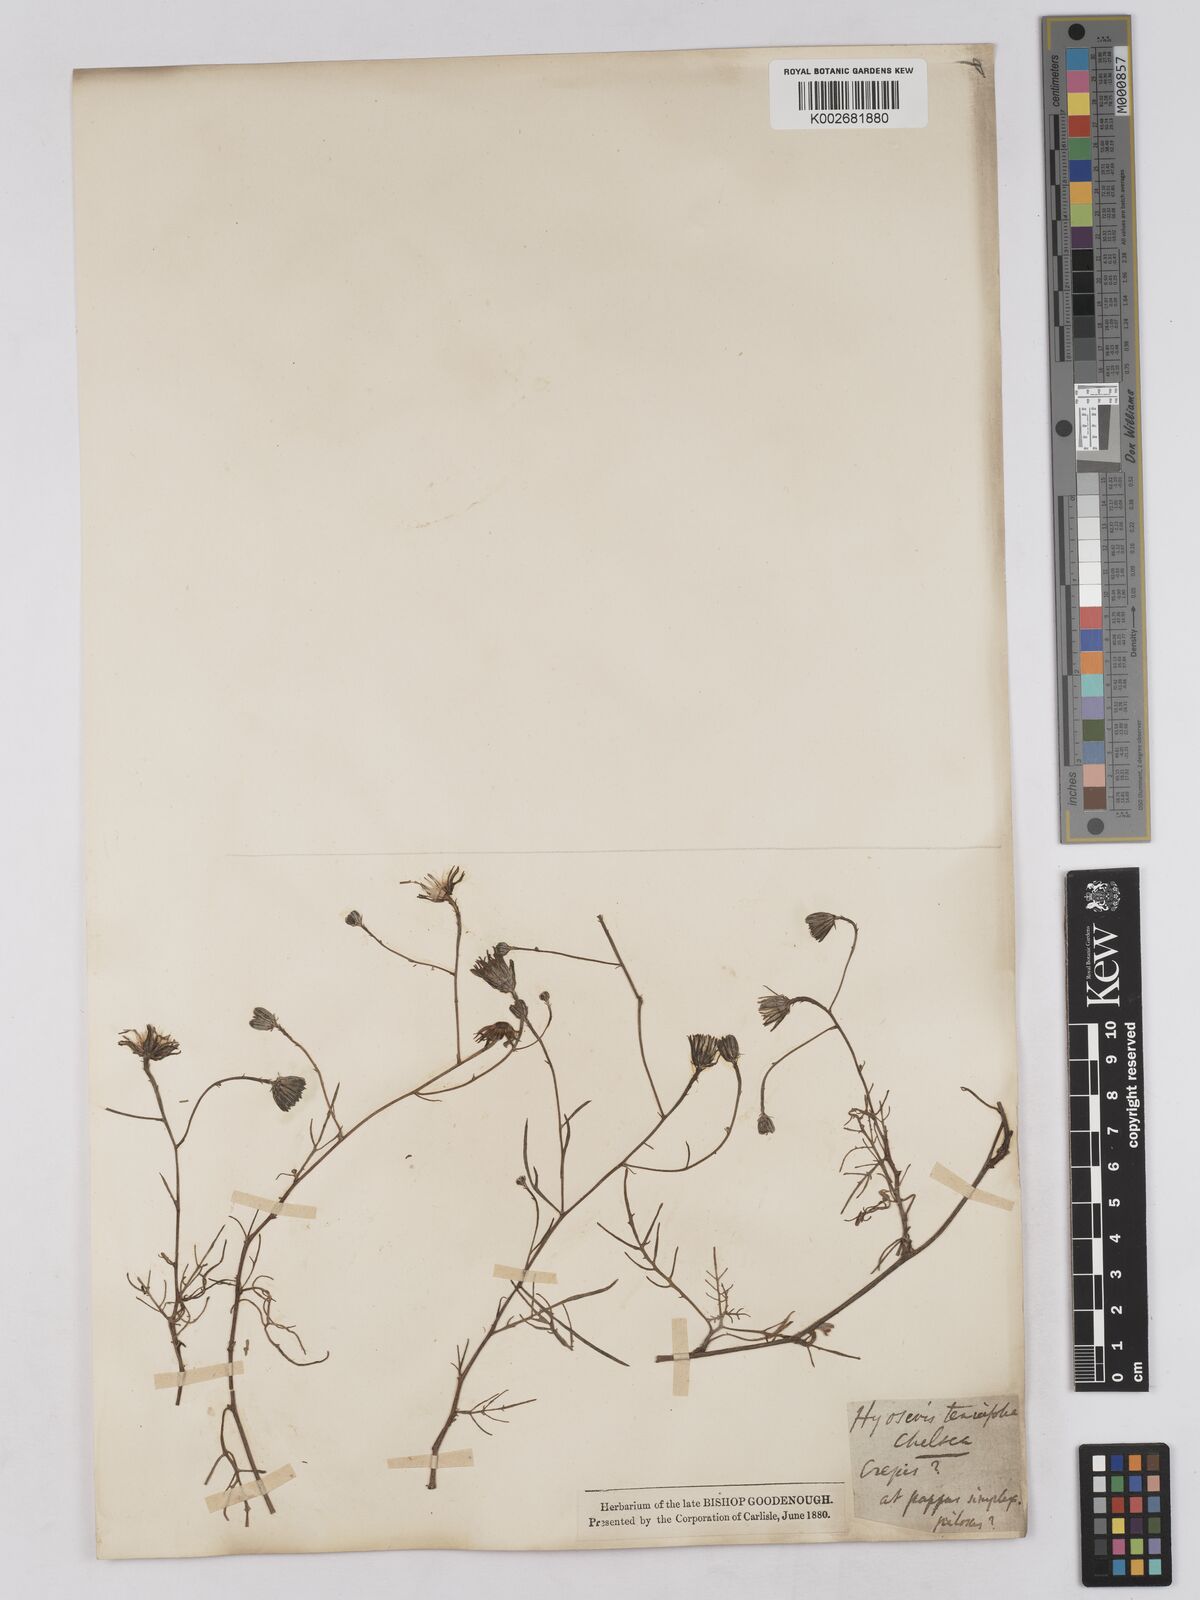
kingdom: Plantae
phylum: Tracheophyta
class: Magnoliopsida
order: Asterales
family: Asteraceae
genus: Tolpis
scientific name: Tolpis
